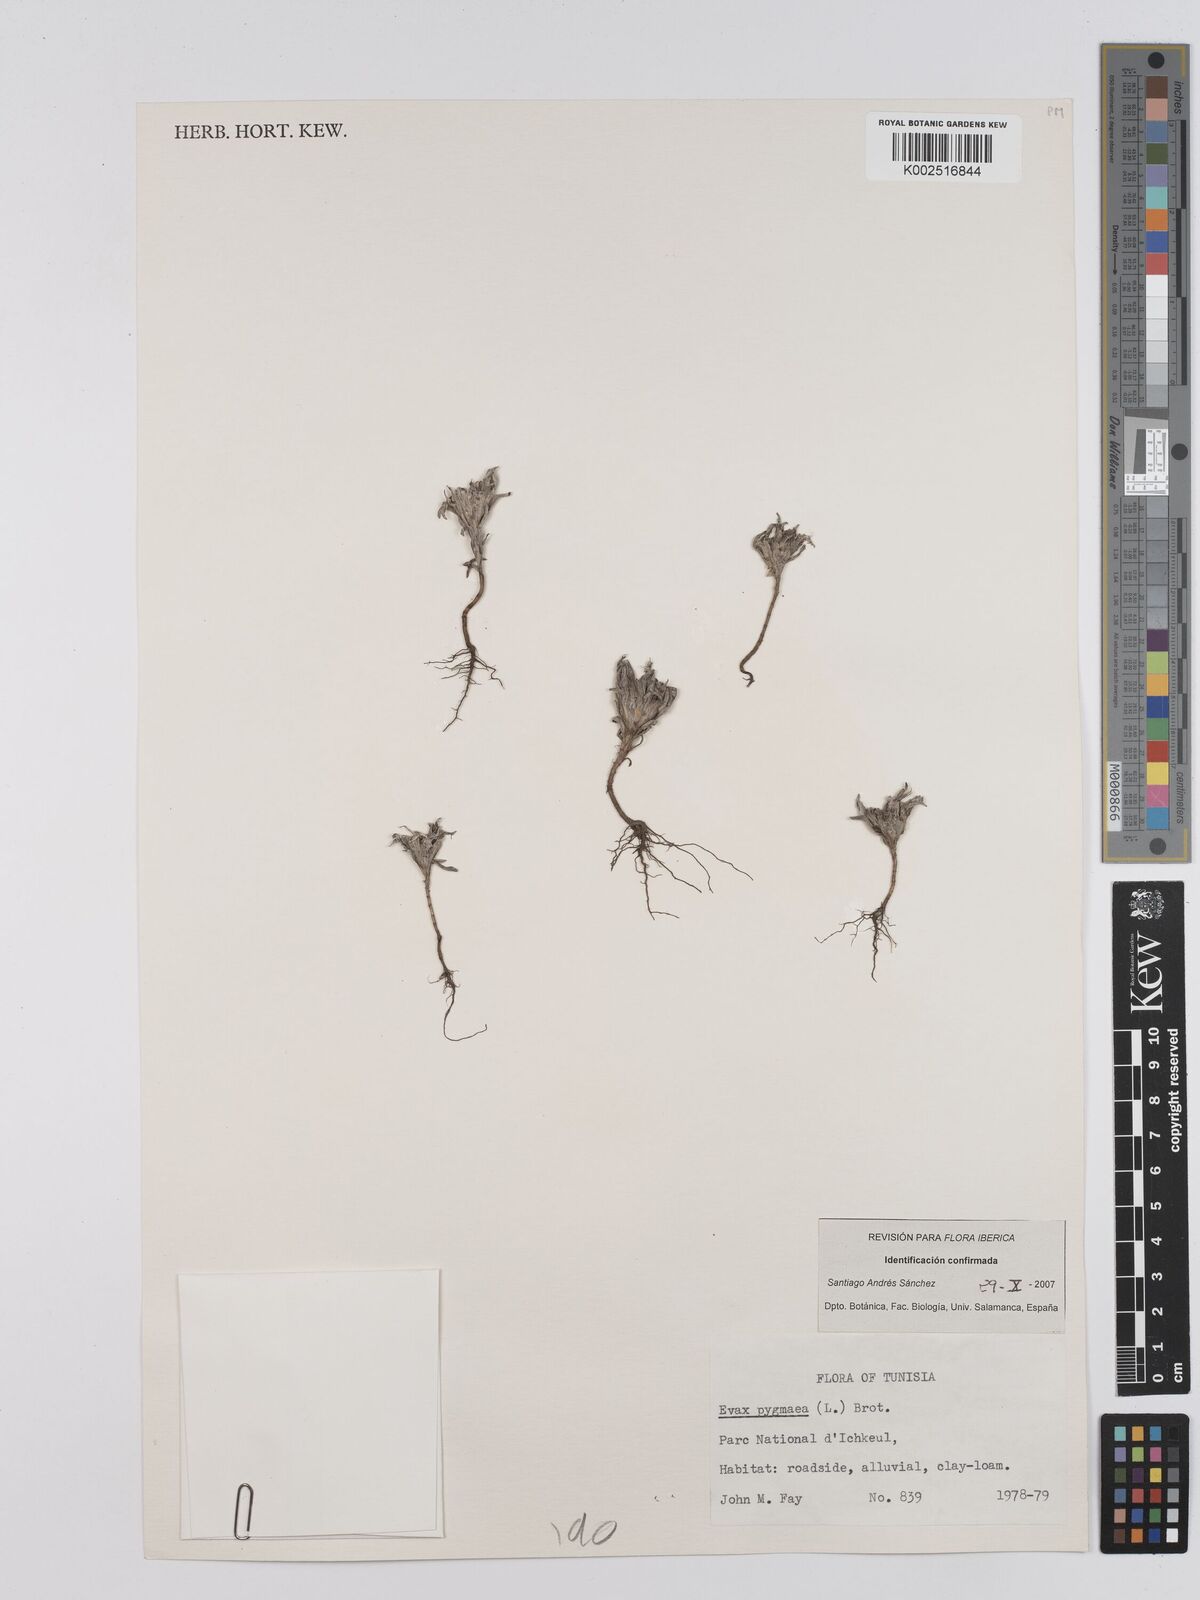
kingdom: Plantae
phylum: Tracheophyta
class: Magnoliopsida
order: Asterales
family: Asteraceae
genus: Filago
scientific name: Filago pygmaea
